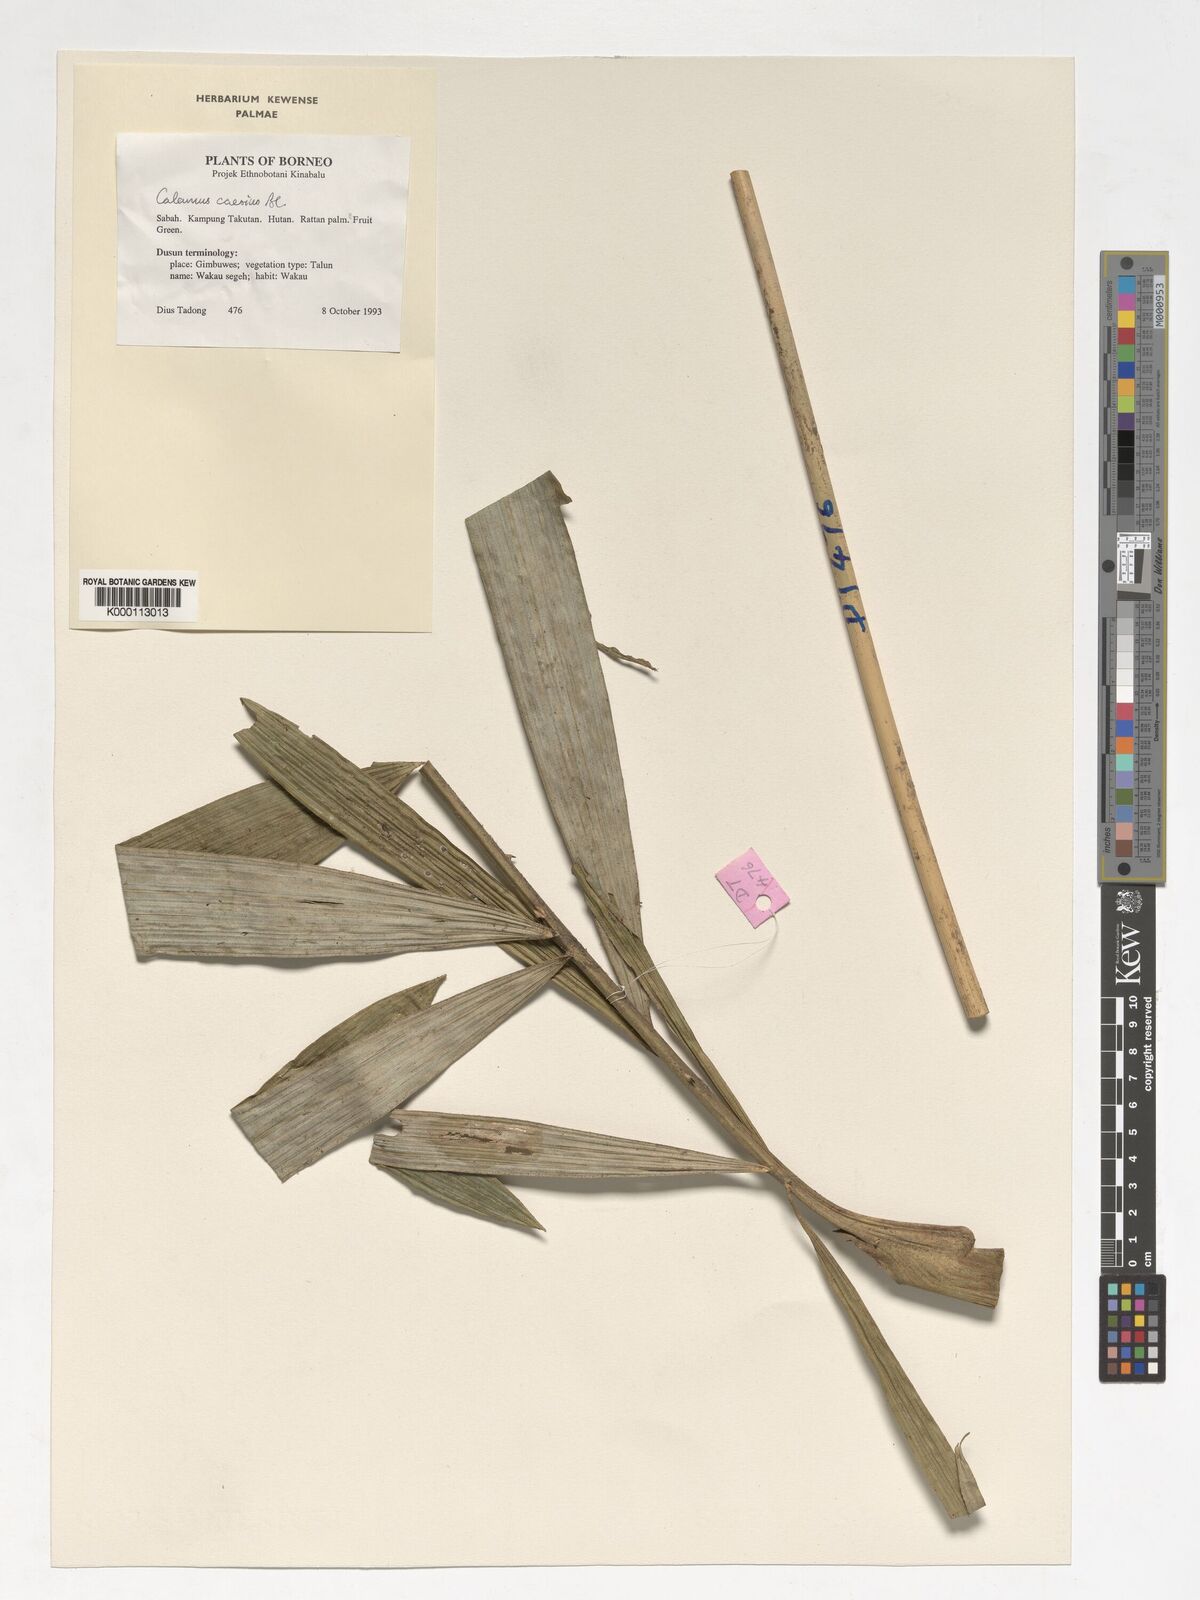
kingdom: Plantae
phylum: Tracheophyta
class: Liliopsida
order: Arecales
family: Arecaceae
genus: Calamus
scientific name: Calamus caesius
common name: Rattan palm
